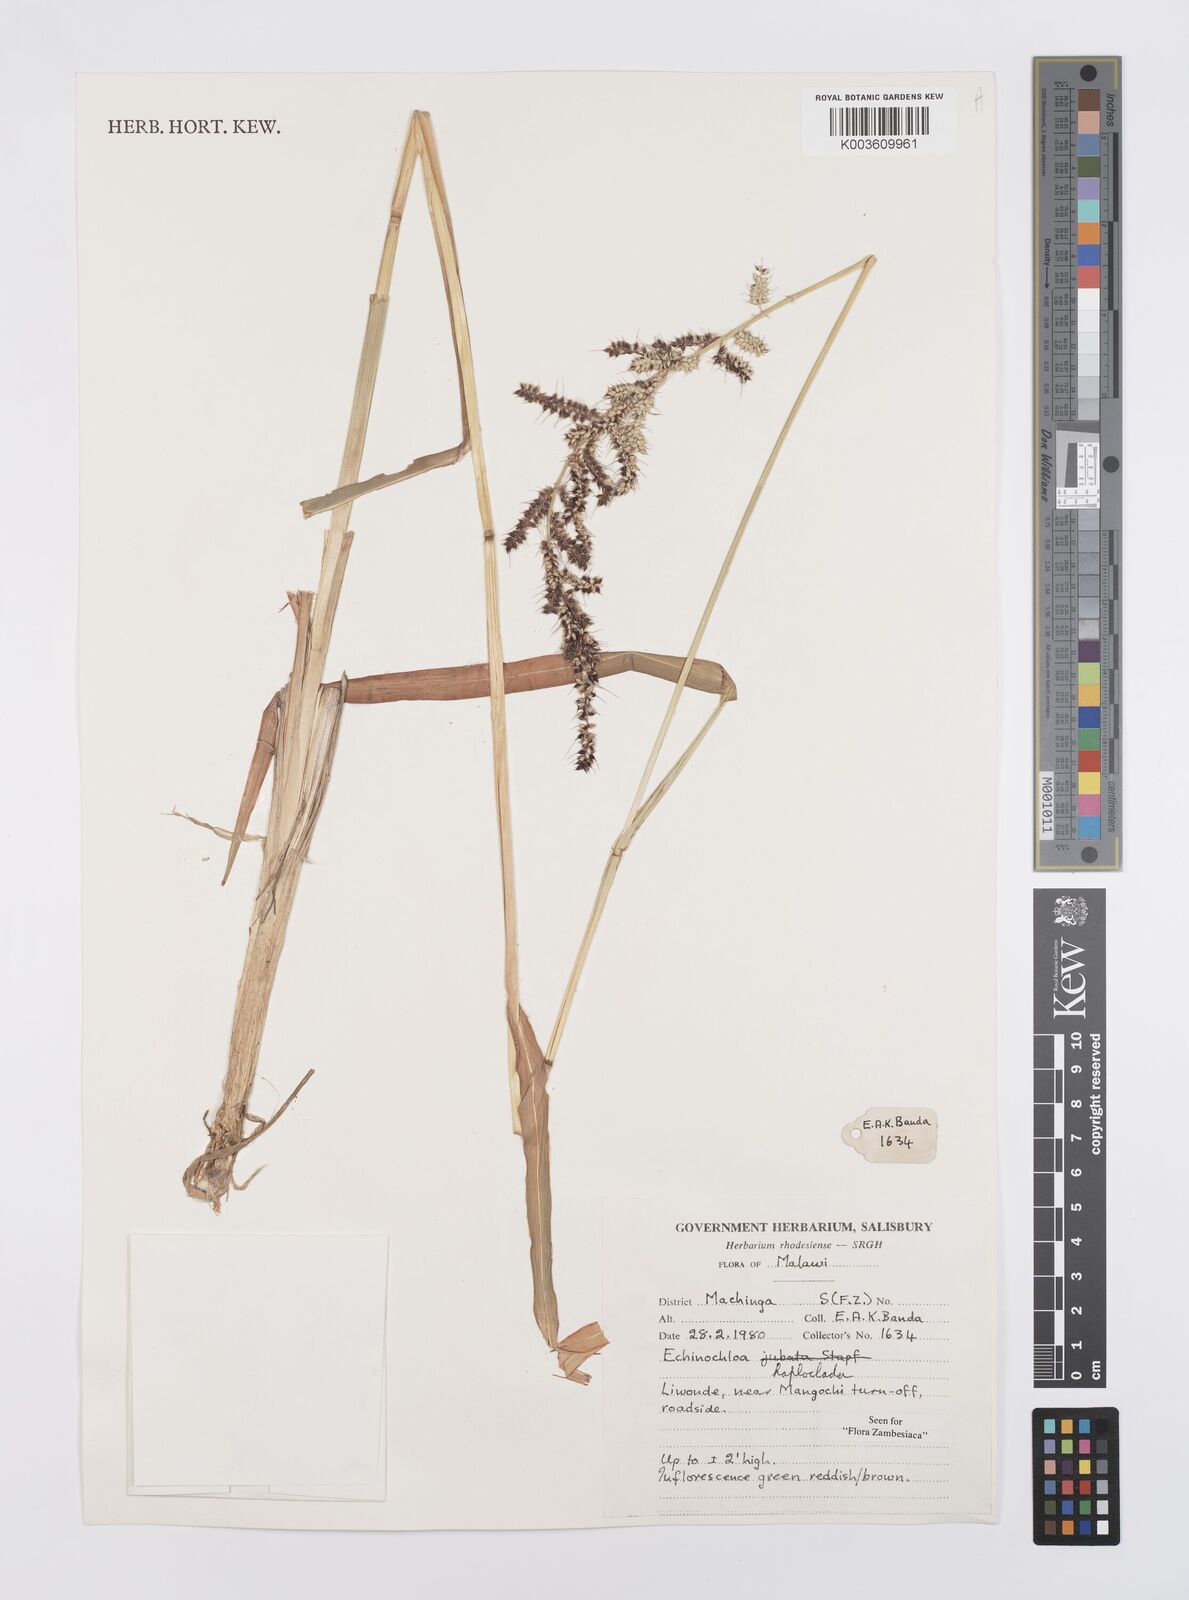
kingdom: Plantae
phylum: Tracheophyta
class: Liliopsida
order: Poales
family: Poaceae
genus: Echinochloa
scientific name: Echinochloa haploclada
